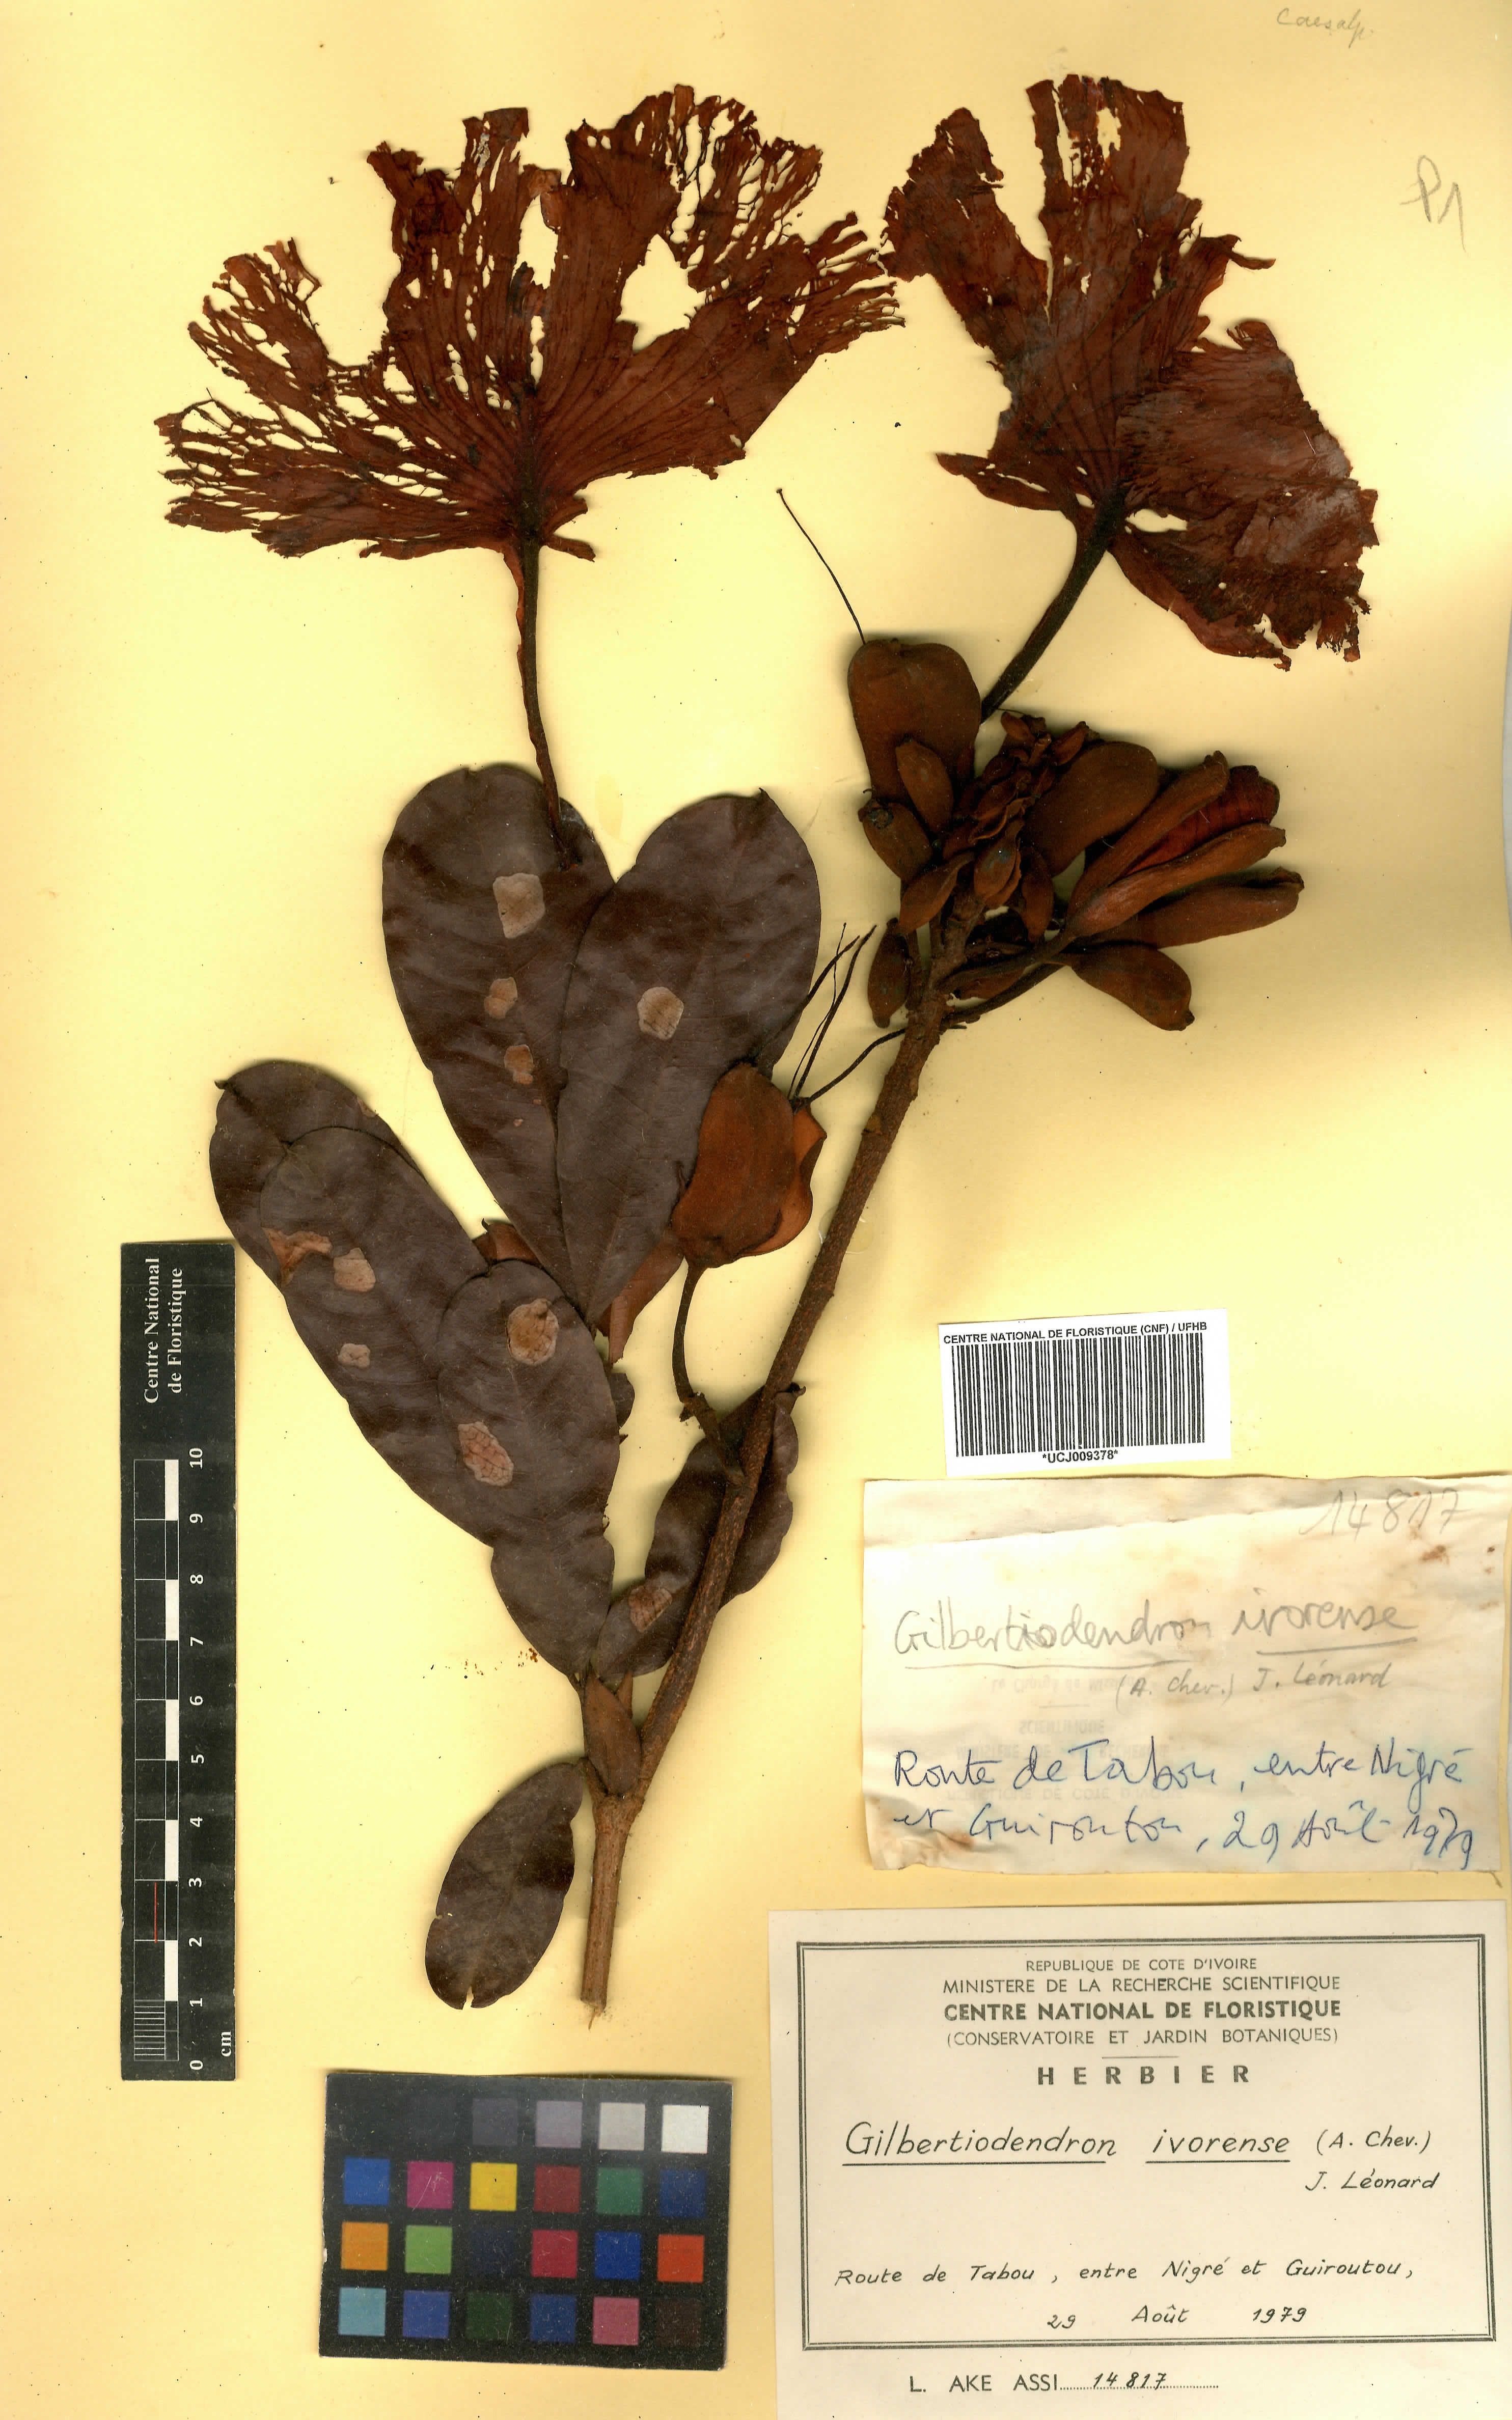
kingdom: Plantae
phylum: Tracheophyta
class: Magnoliopsida
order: Fabales
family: Fabaceae
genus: Gilbertiodendron
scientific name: Gilbertiodendron ivorense
